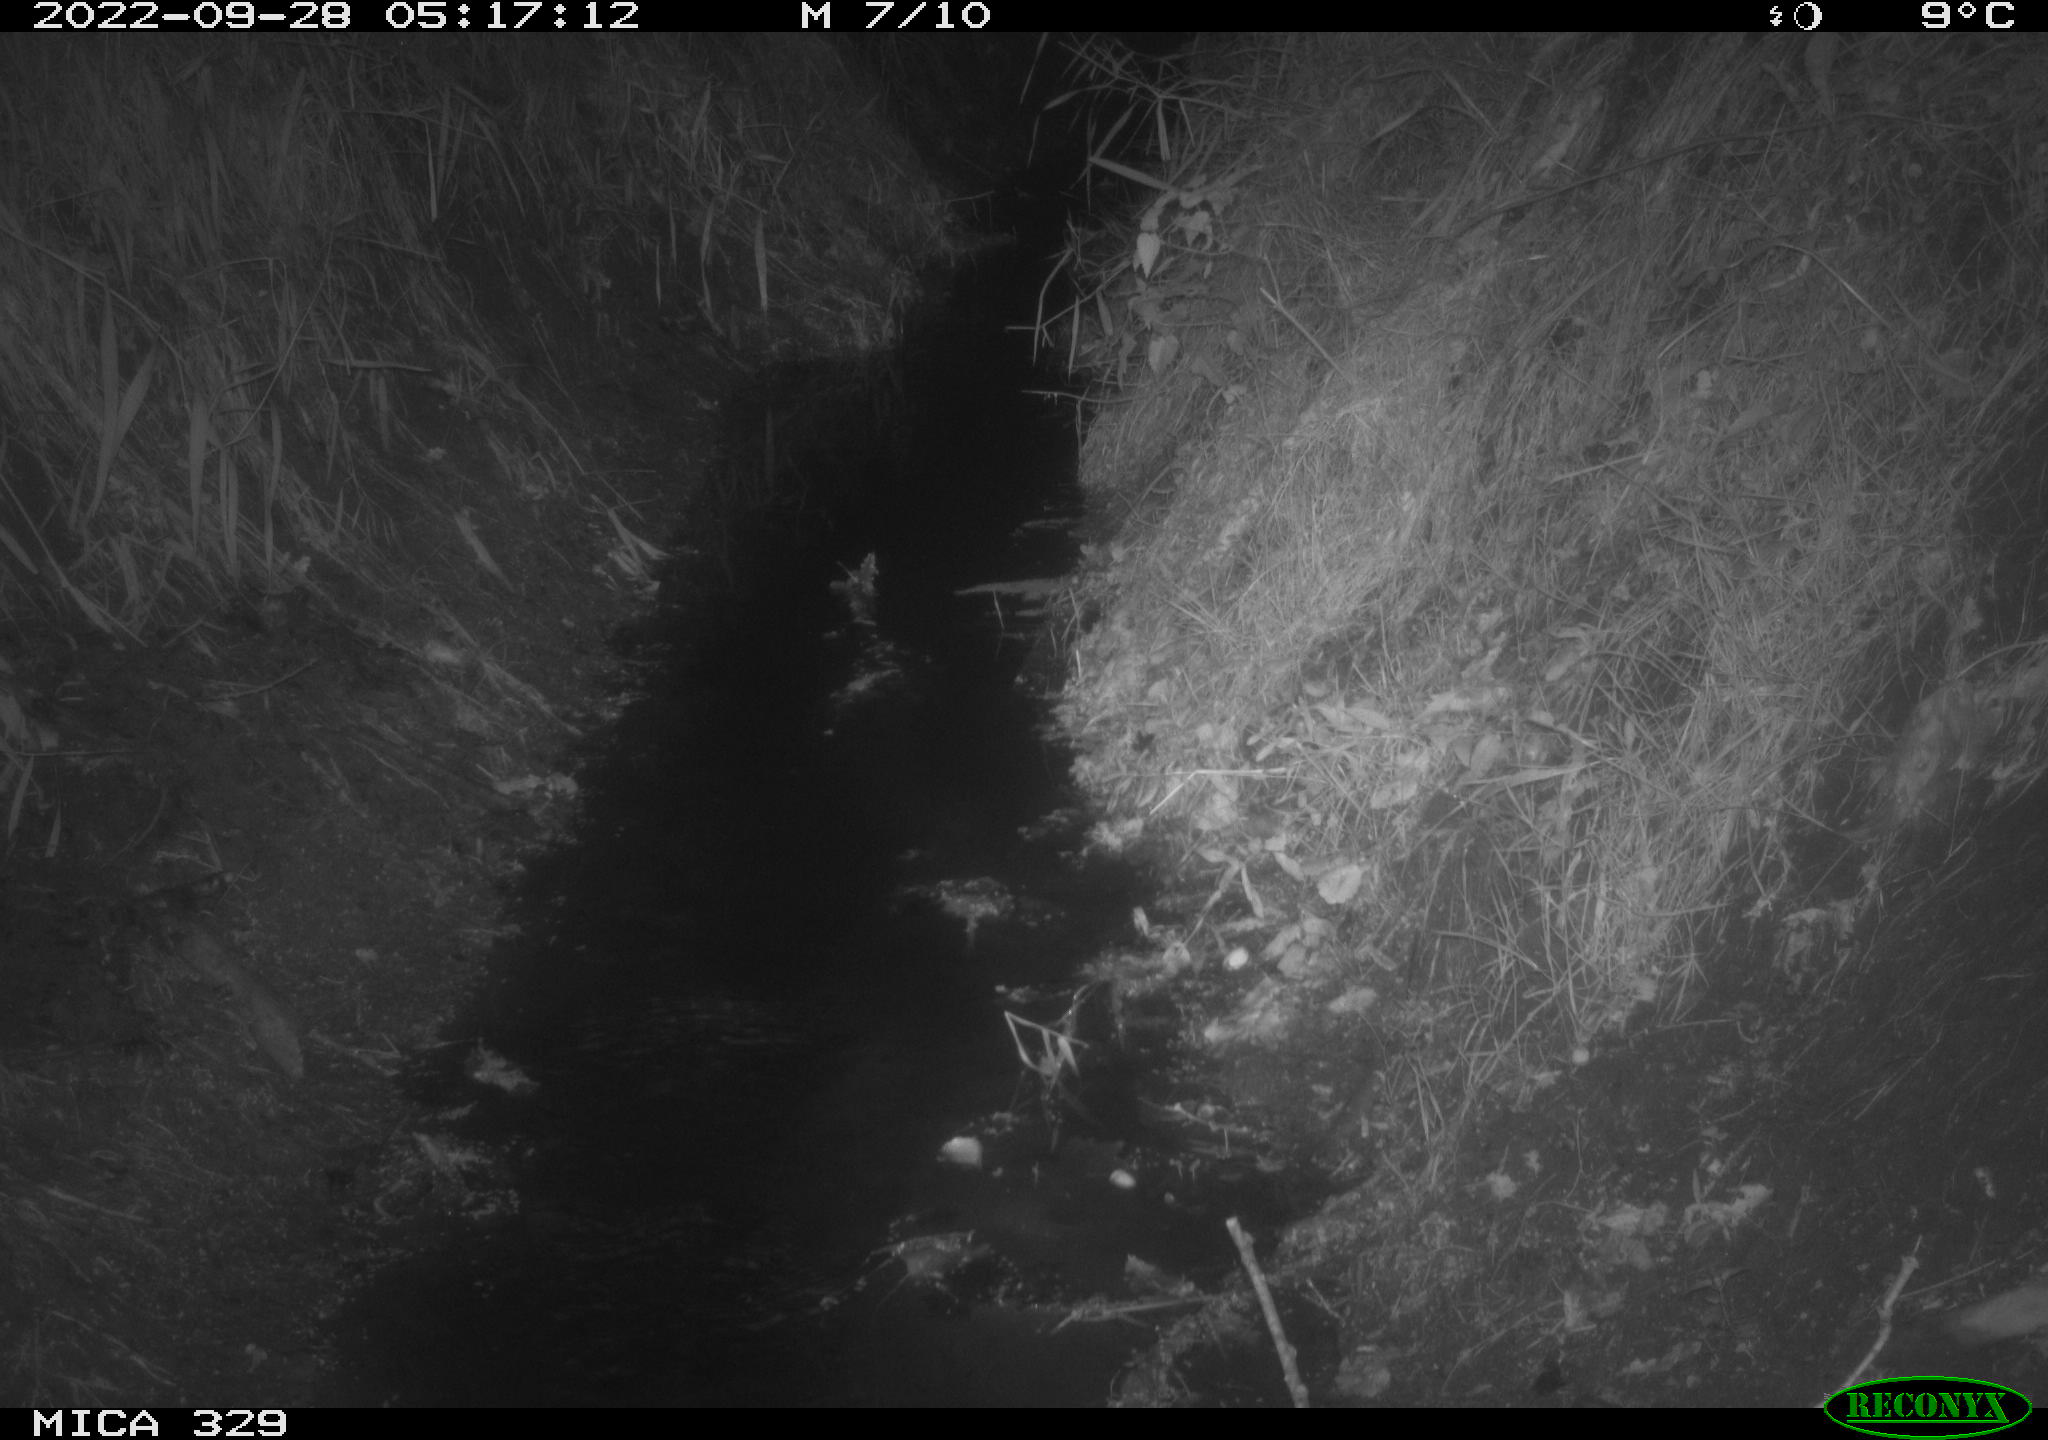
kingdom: Animalia
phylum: Chordata
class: Mammalia
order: Rodentia
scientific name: Rodentia
